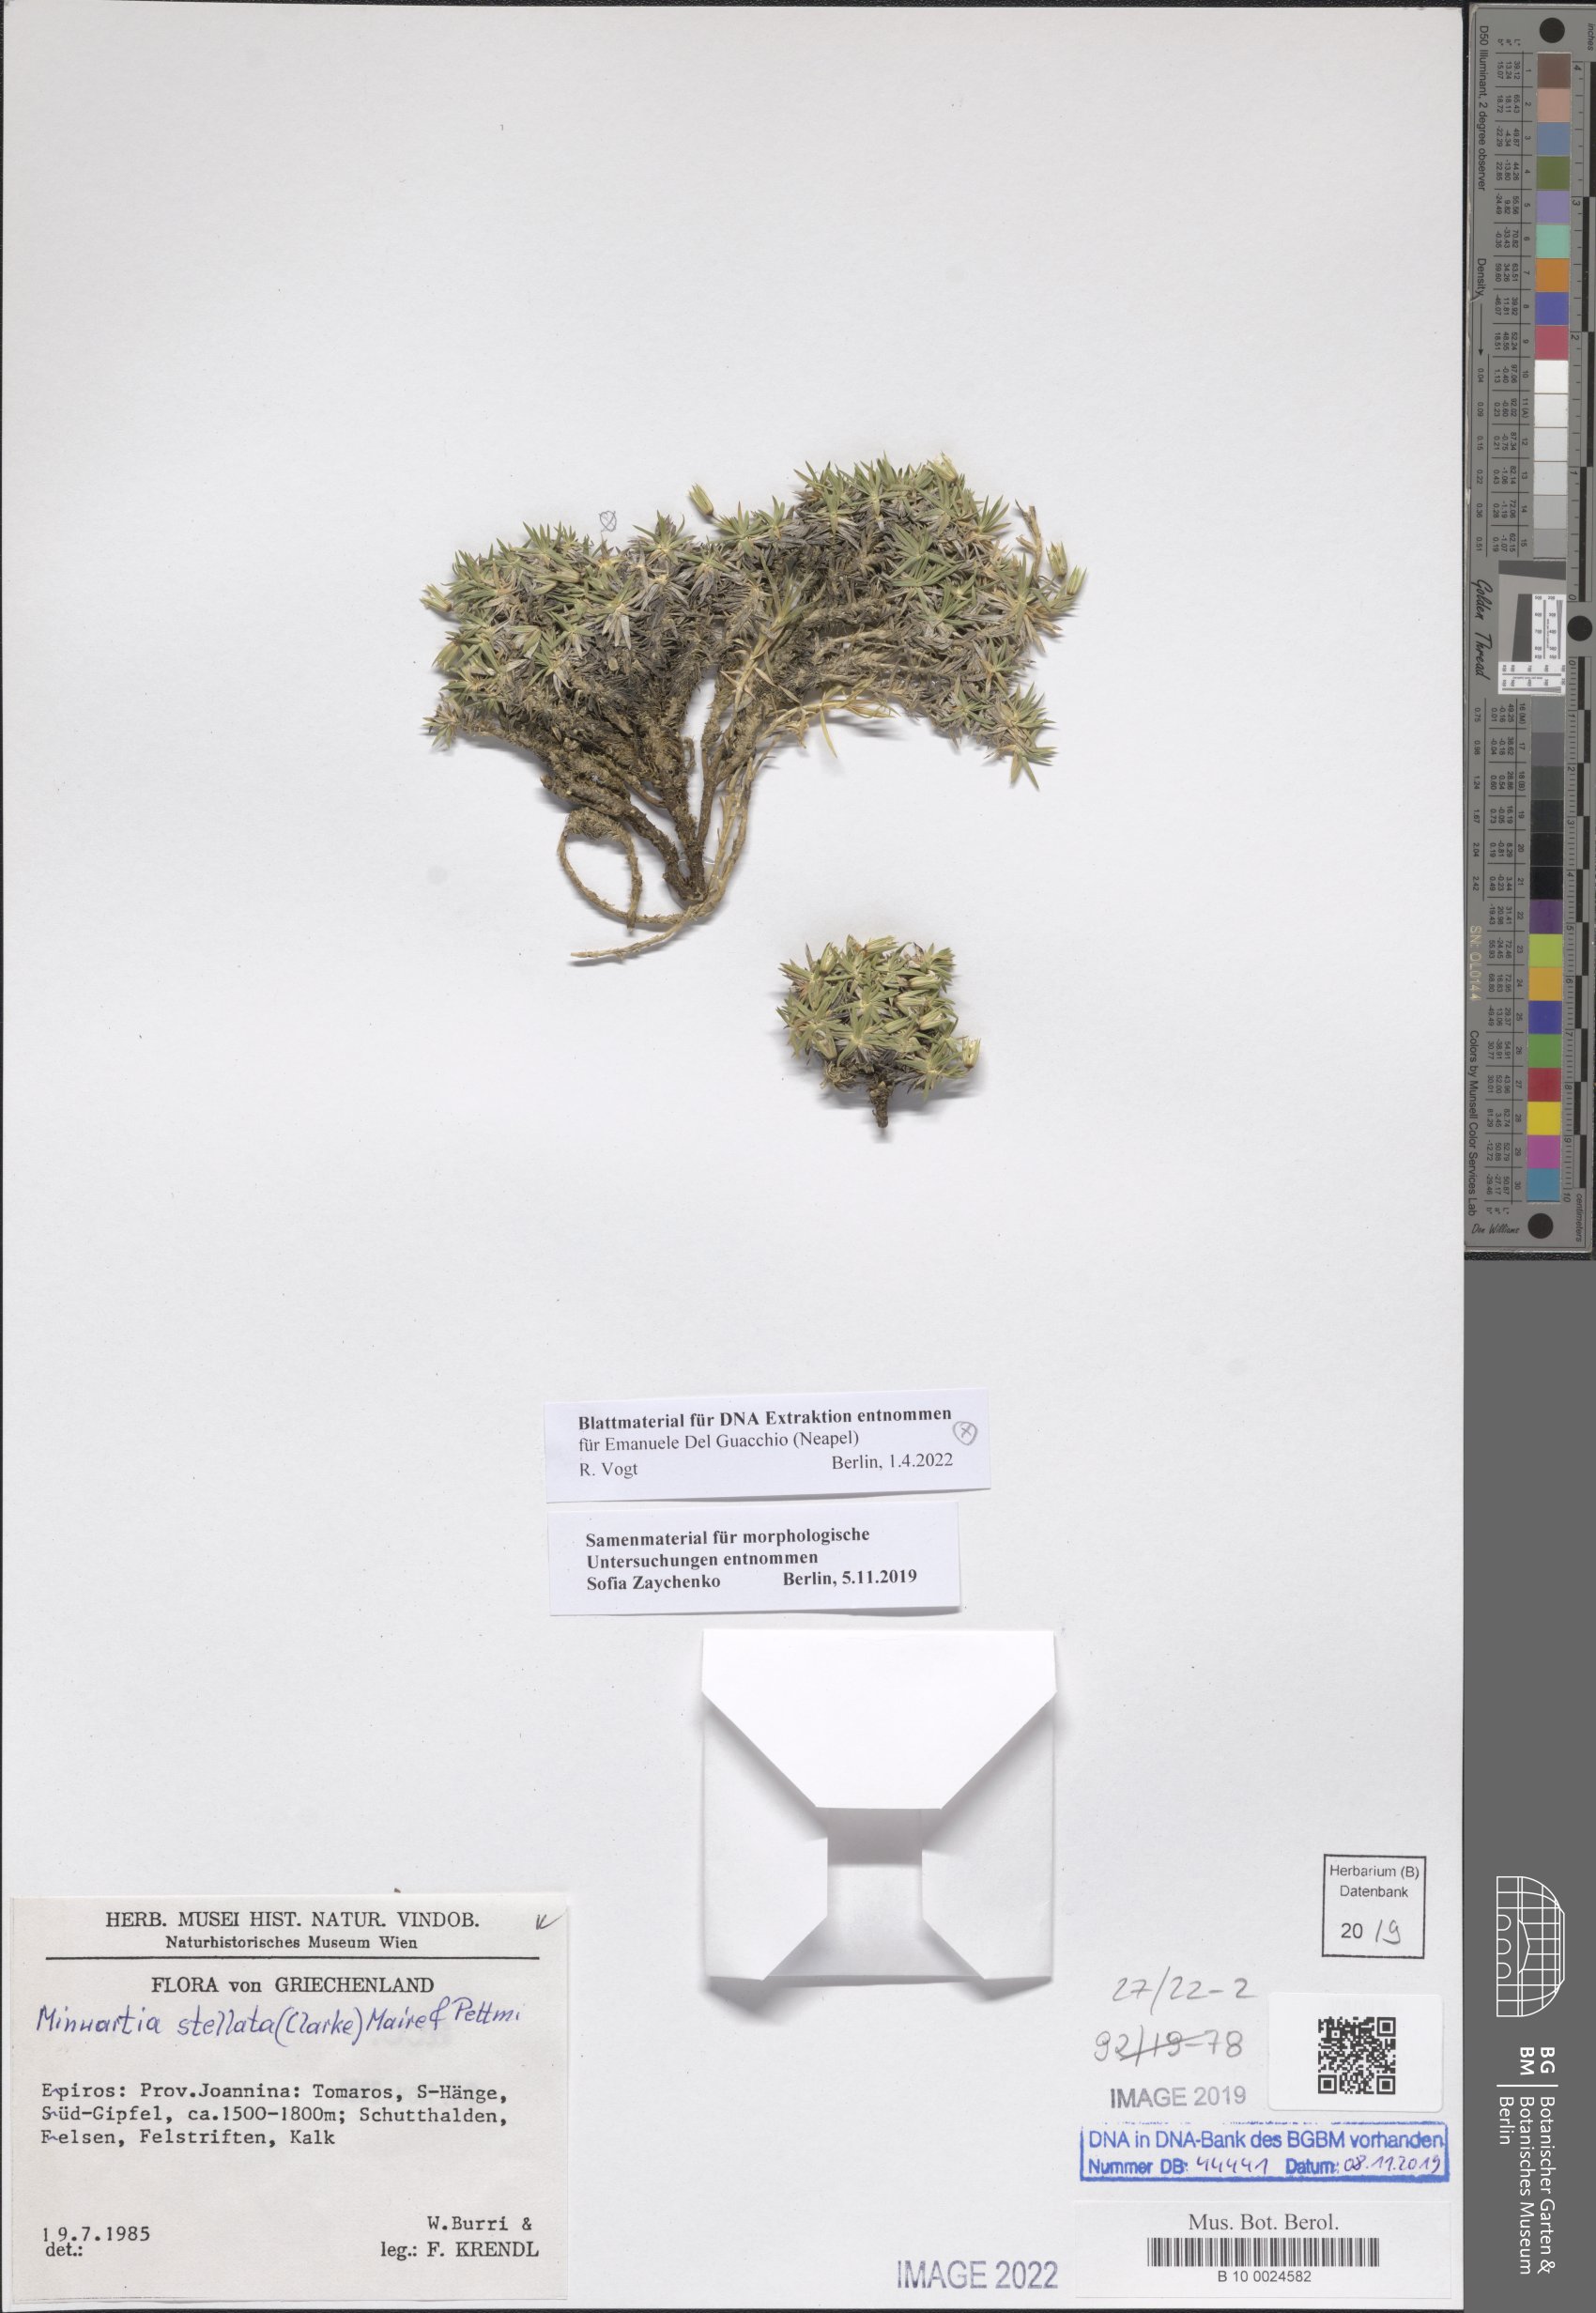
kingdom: Plantae
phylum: Tracheophyta
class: Magnoliopsida
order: Caryophyllales
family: Caryophyllaceae
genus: Mcneillia
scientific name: Mcneillia stellata
